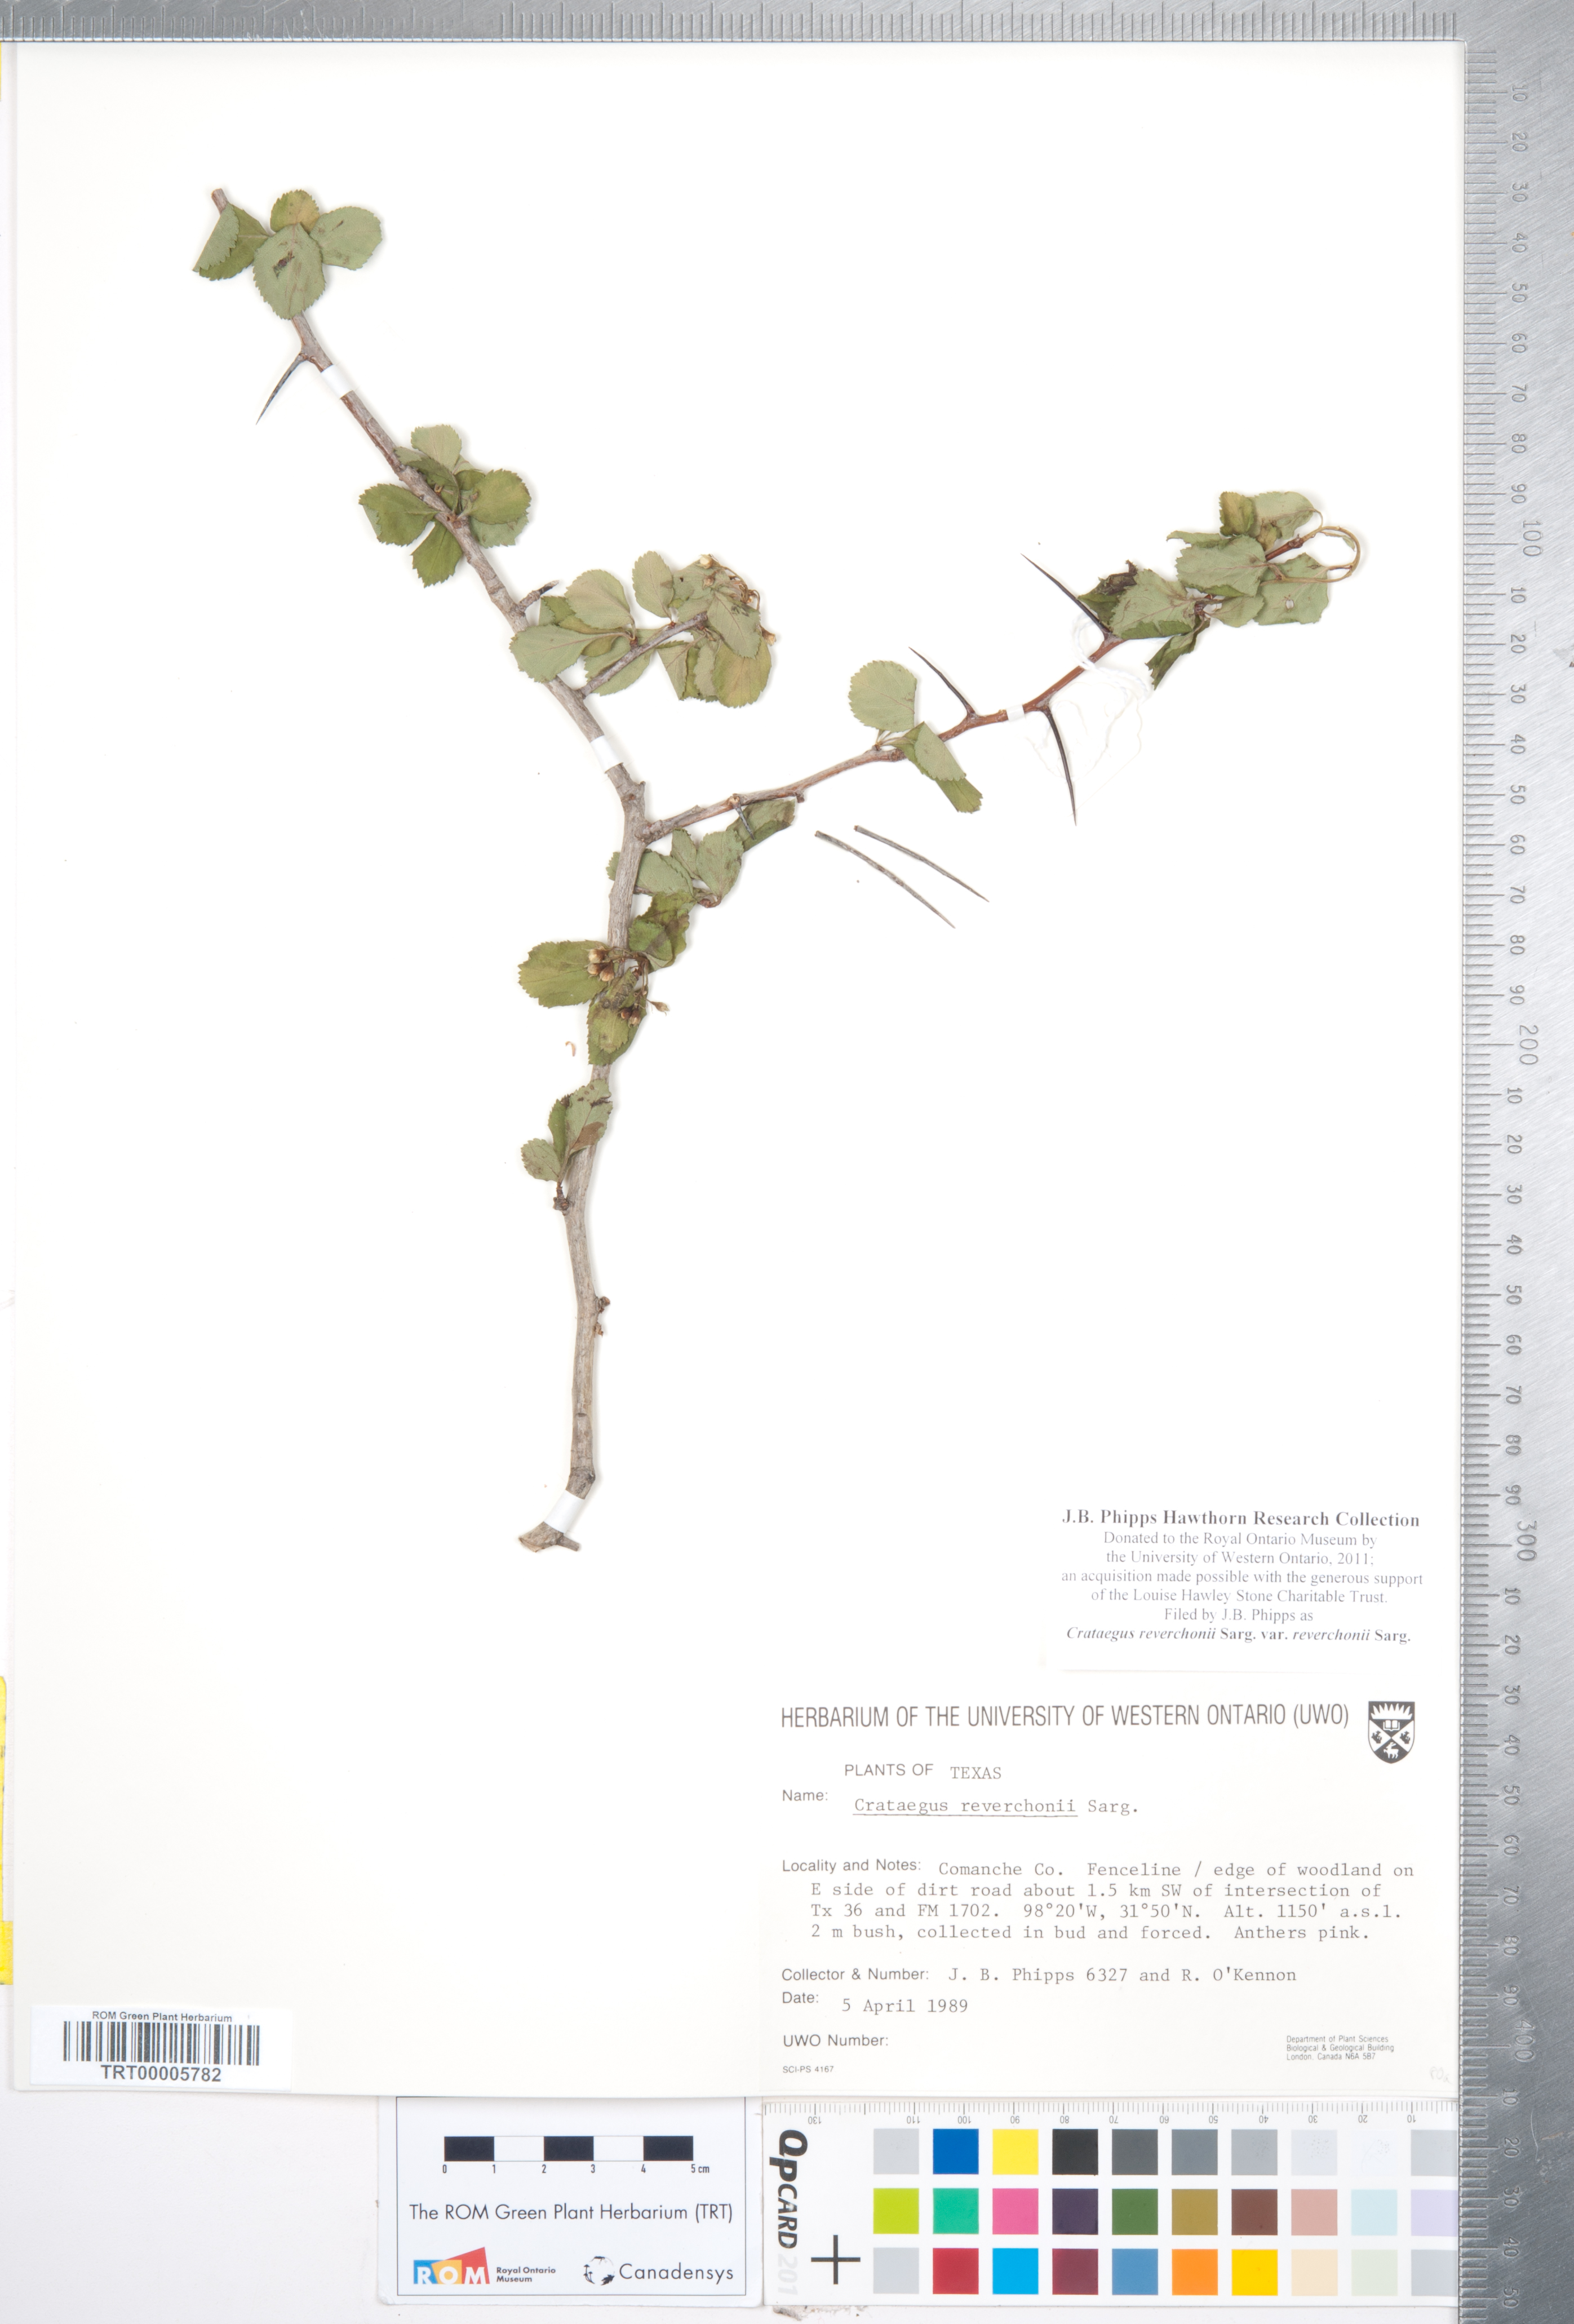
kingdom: Plantae
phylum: Tracheophyta
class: Magnoliopsida
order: Rosales
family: Rosaceae
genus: Crataegus
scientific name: Crataegus reverchonii
